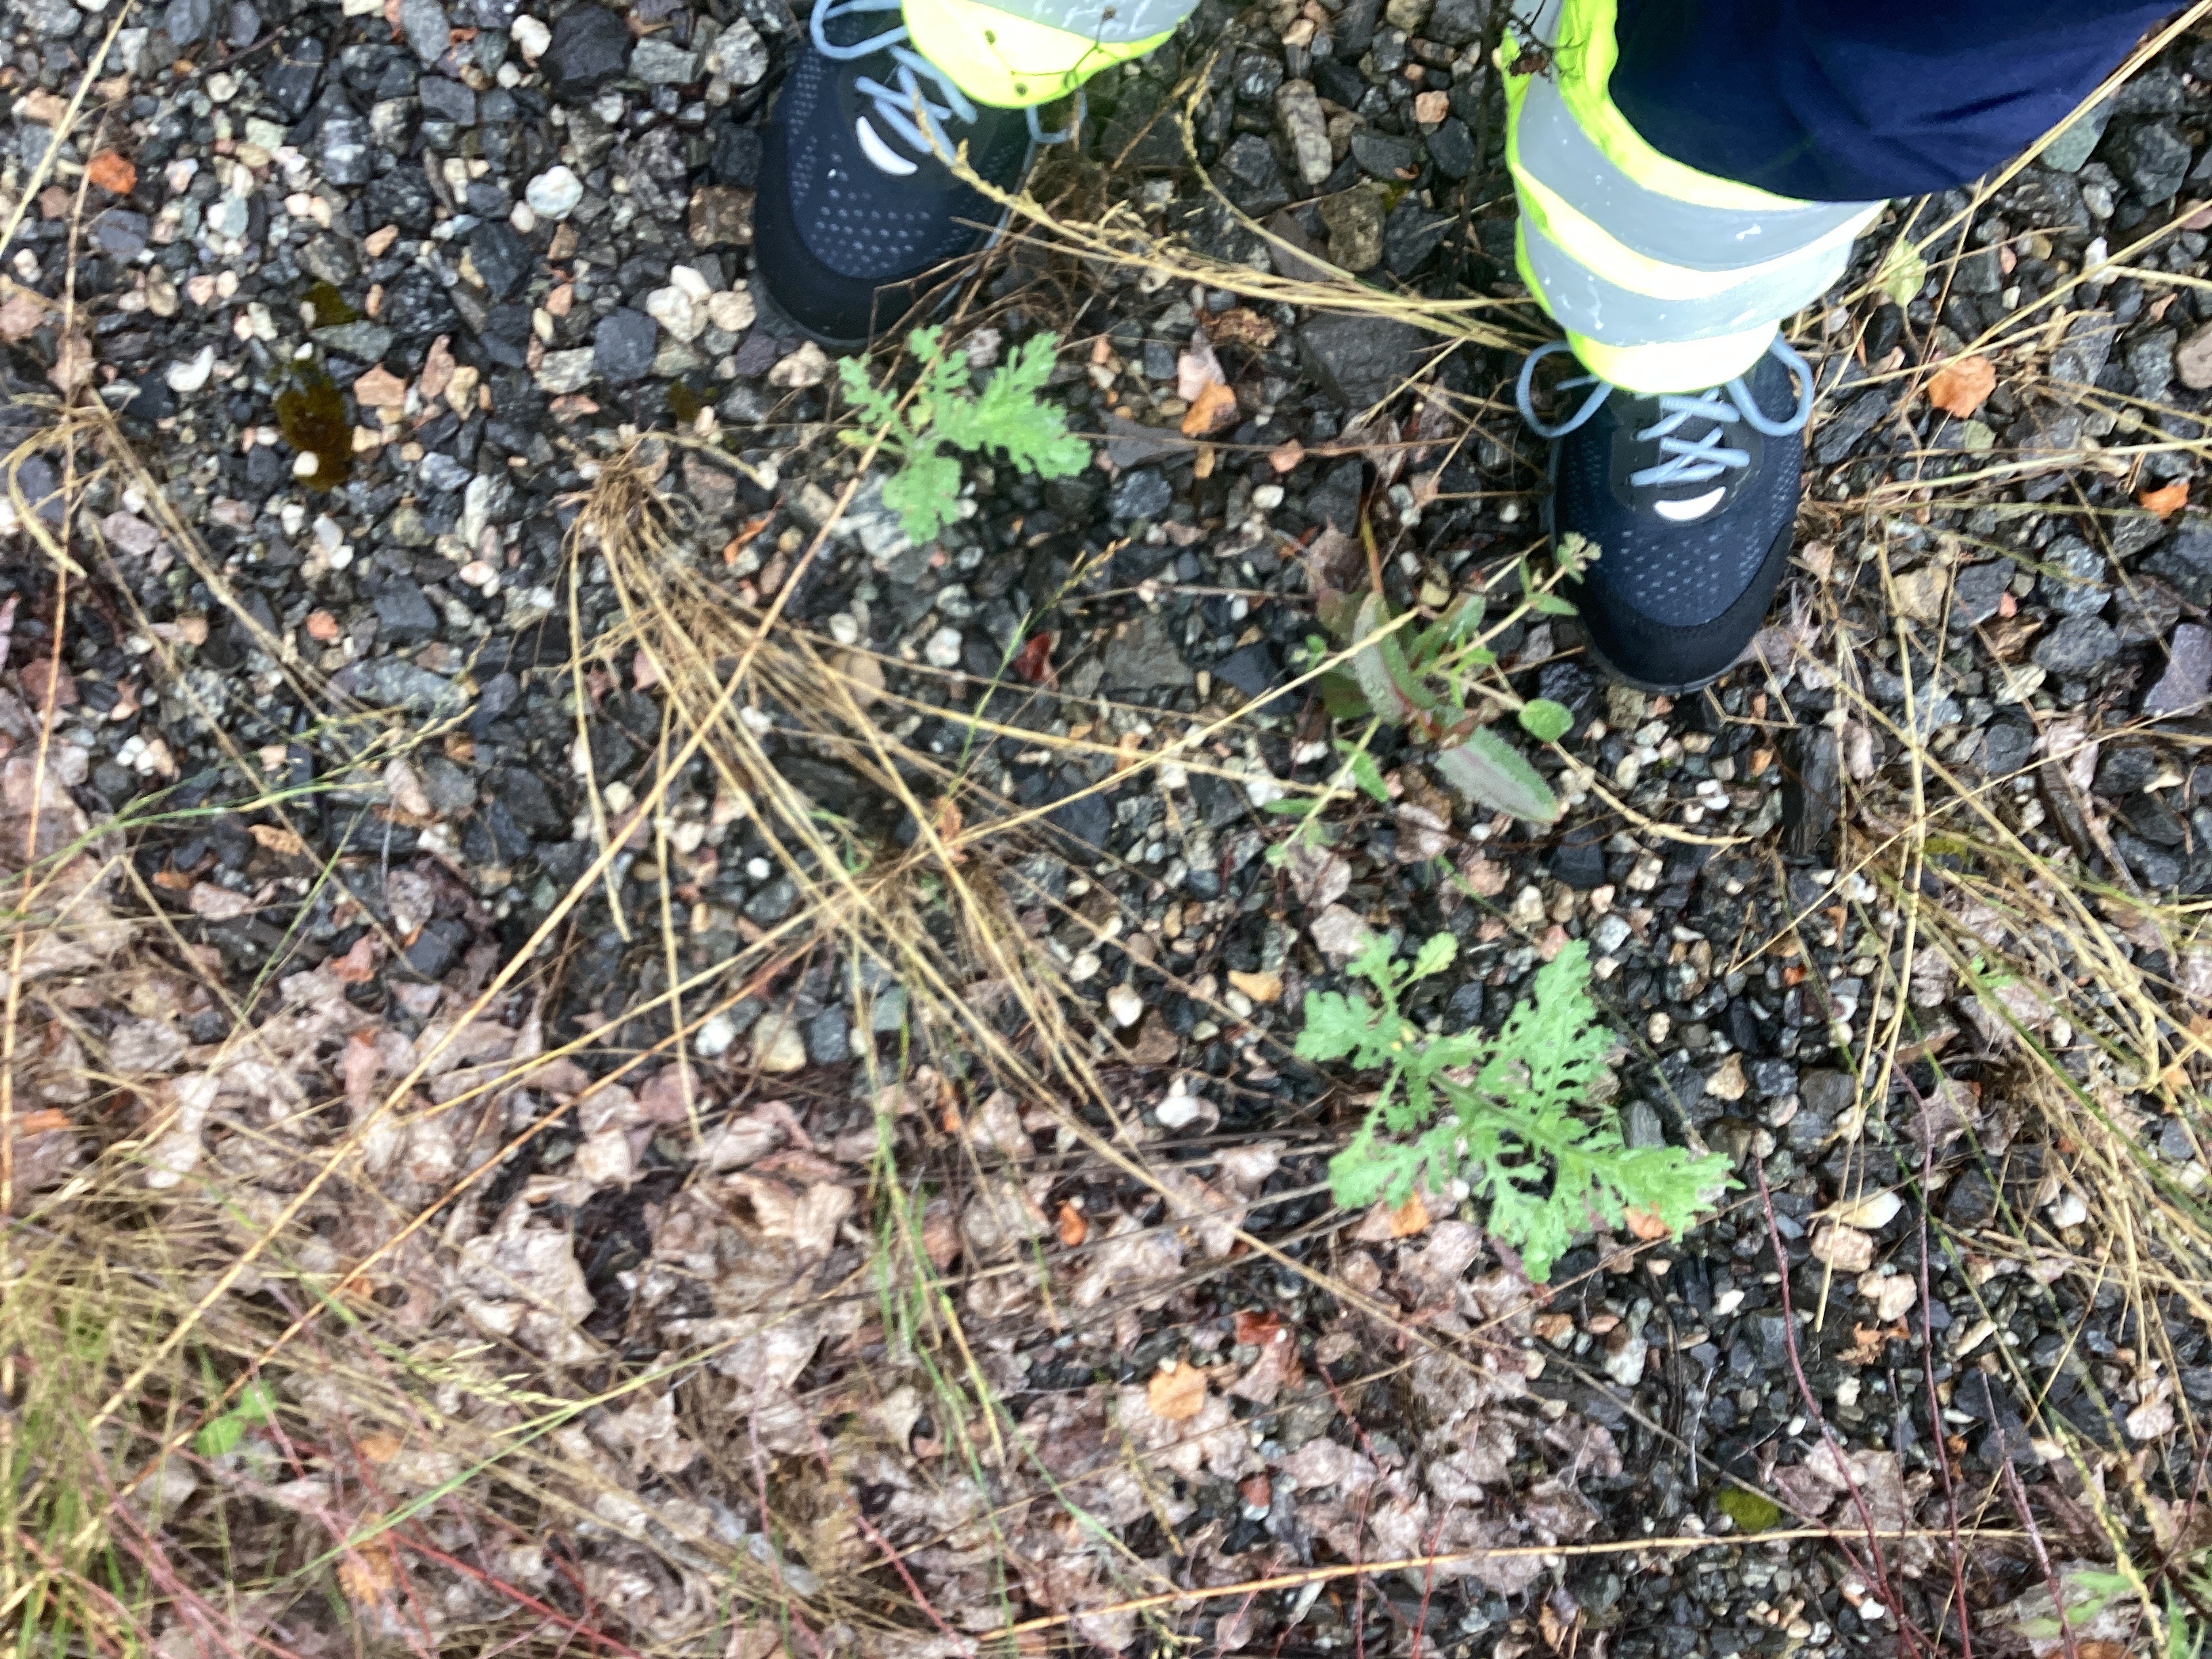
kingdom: Plantae
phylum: Tracheophyta
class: Magnoliopsida
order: Asterales
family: Asteraceae
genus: Senecio
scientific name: Senecio viscosus
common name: klistersvineblom
